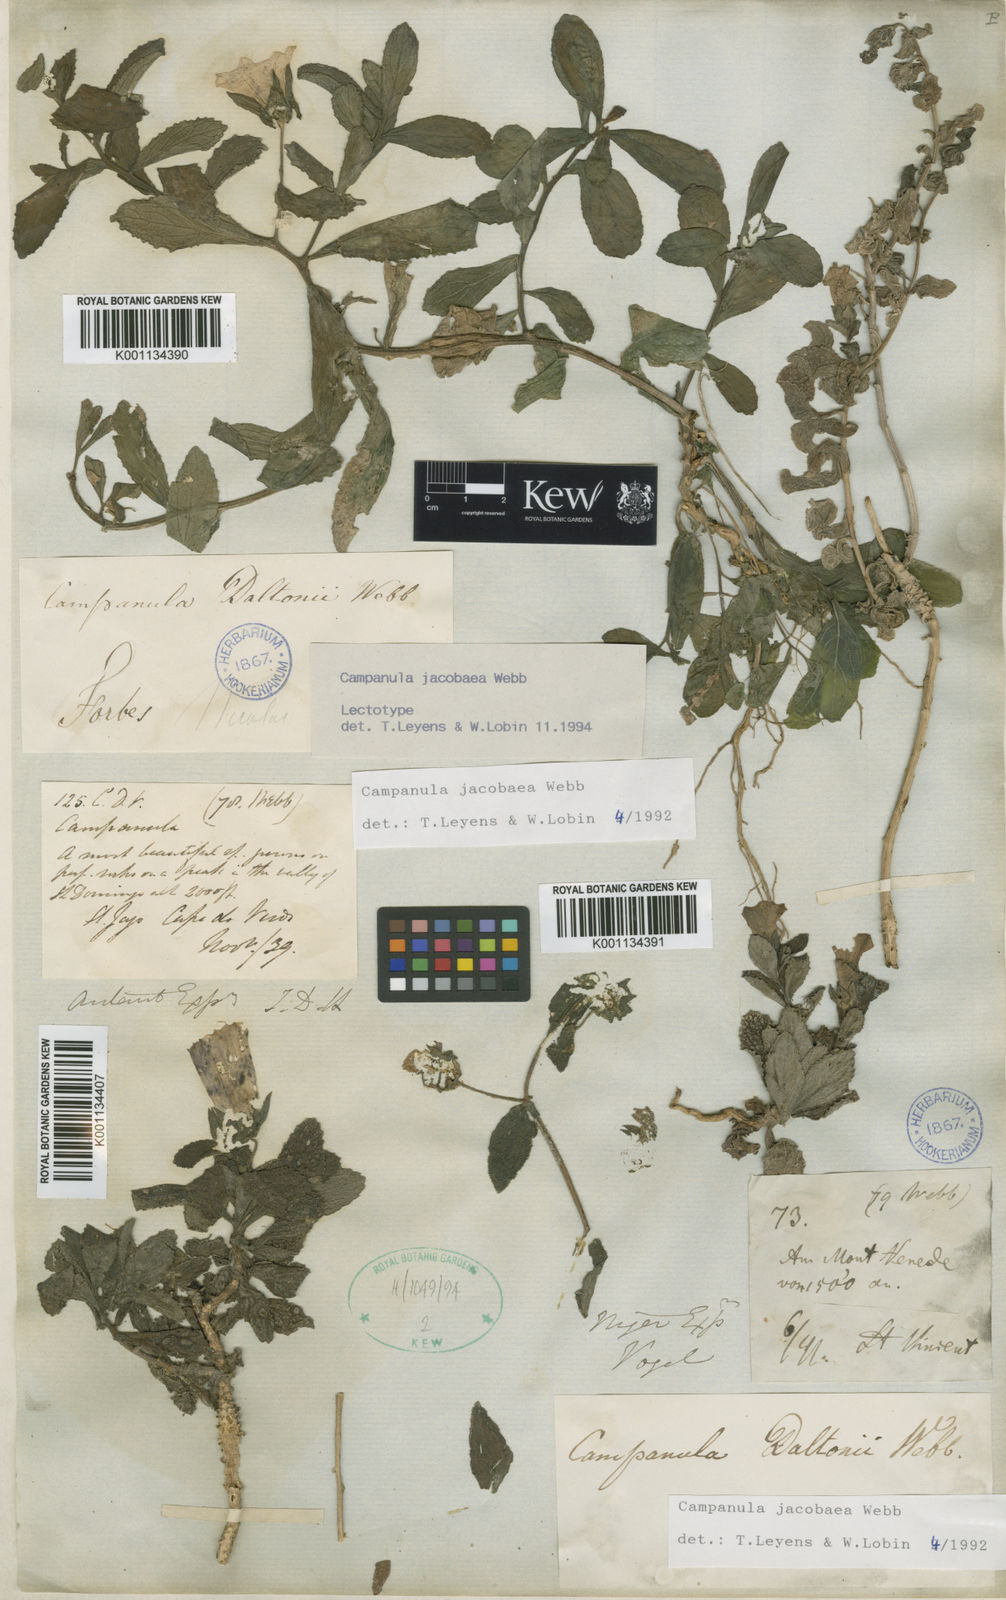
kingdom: Plantae
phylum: Tracheophyta
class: Magnoliopsida
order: Asterales
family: Campanulaceae
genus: Campanula
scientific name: Campanula
